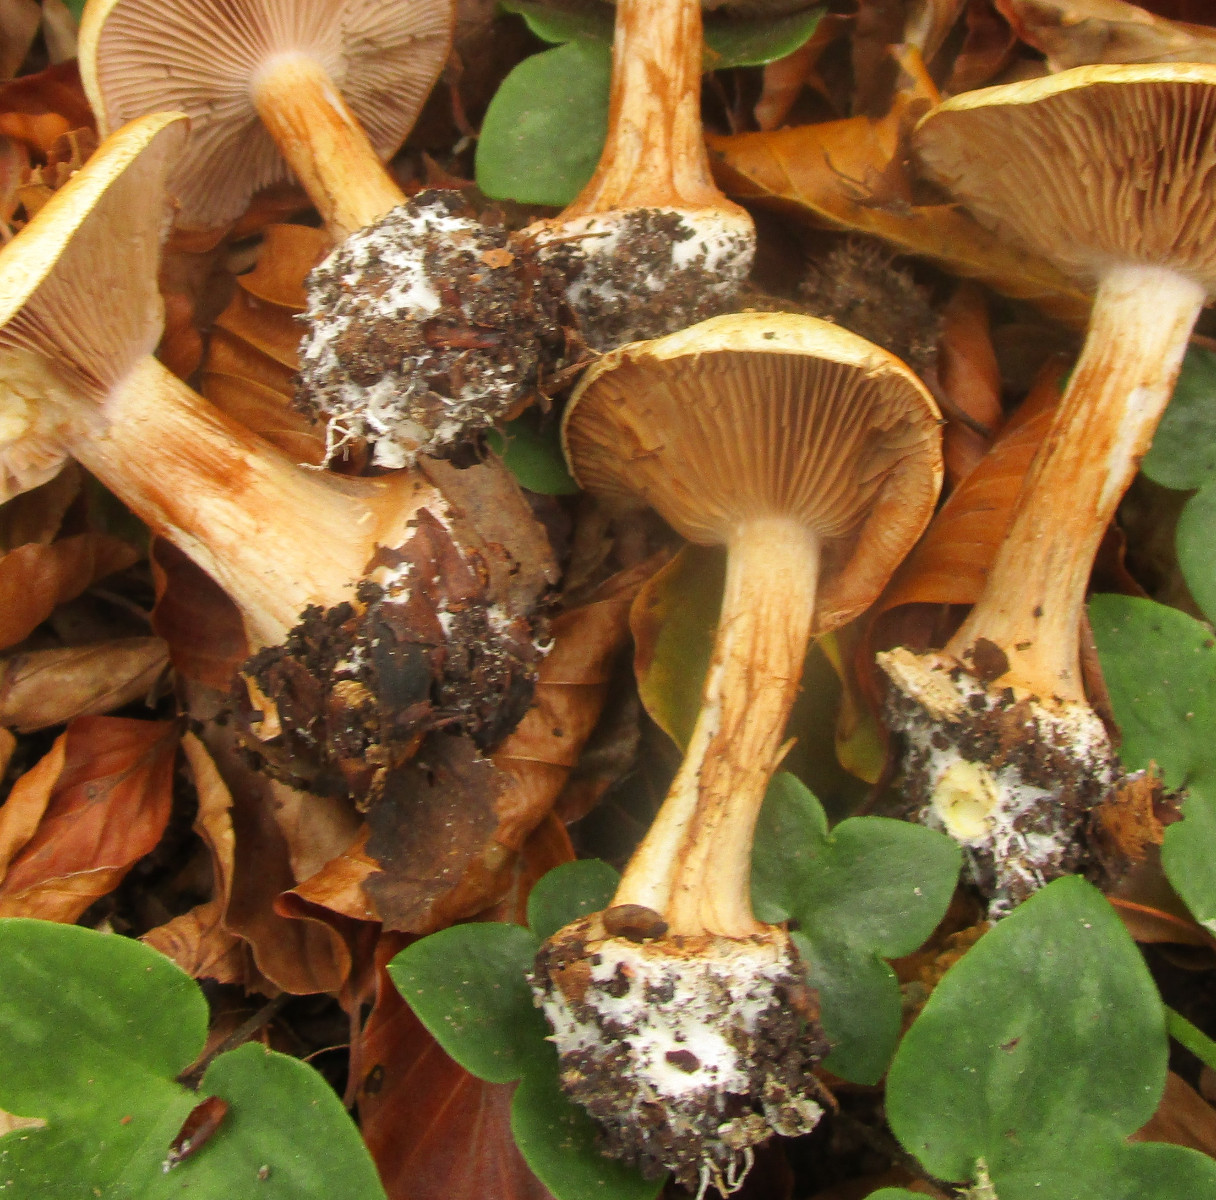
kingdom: Fungi
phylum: Basidiomycota
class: Agaricomycetes
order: Agaricales
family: Cortinariaceae
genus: Cortinarius
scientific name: Cortinarius
